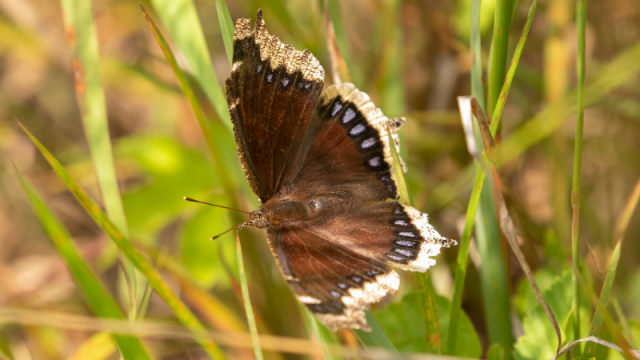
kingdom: Animalia
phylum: Arthropoda
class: Insecta
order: Lepidoptera
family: Nymphalidae
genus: Nymphalis
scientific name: Nymphalis antiopa
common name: Mourning Cloak
